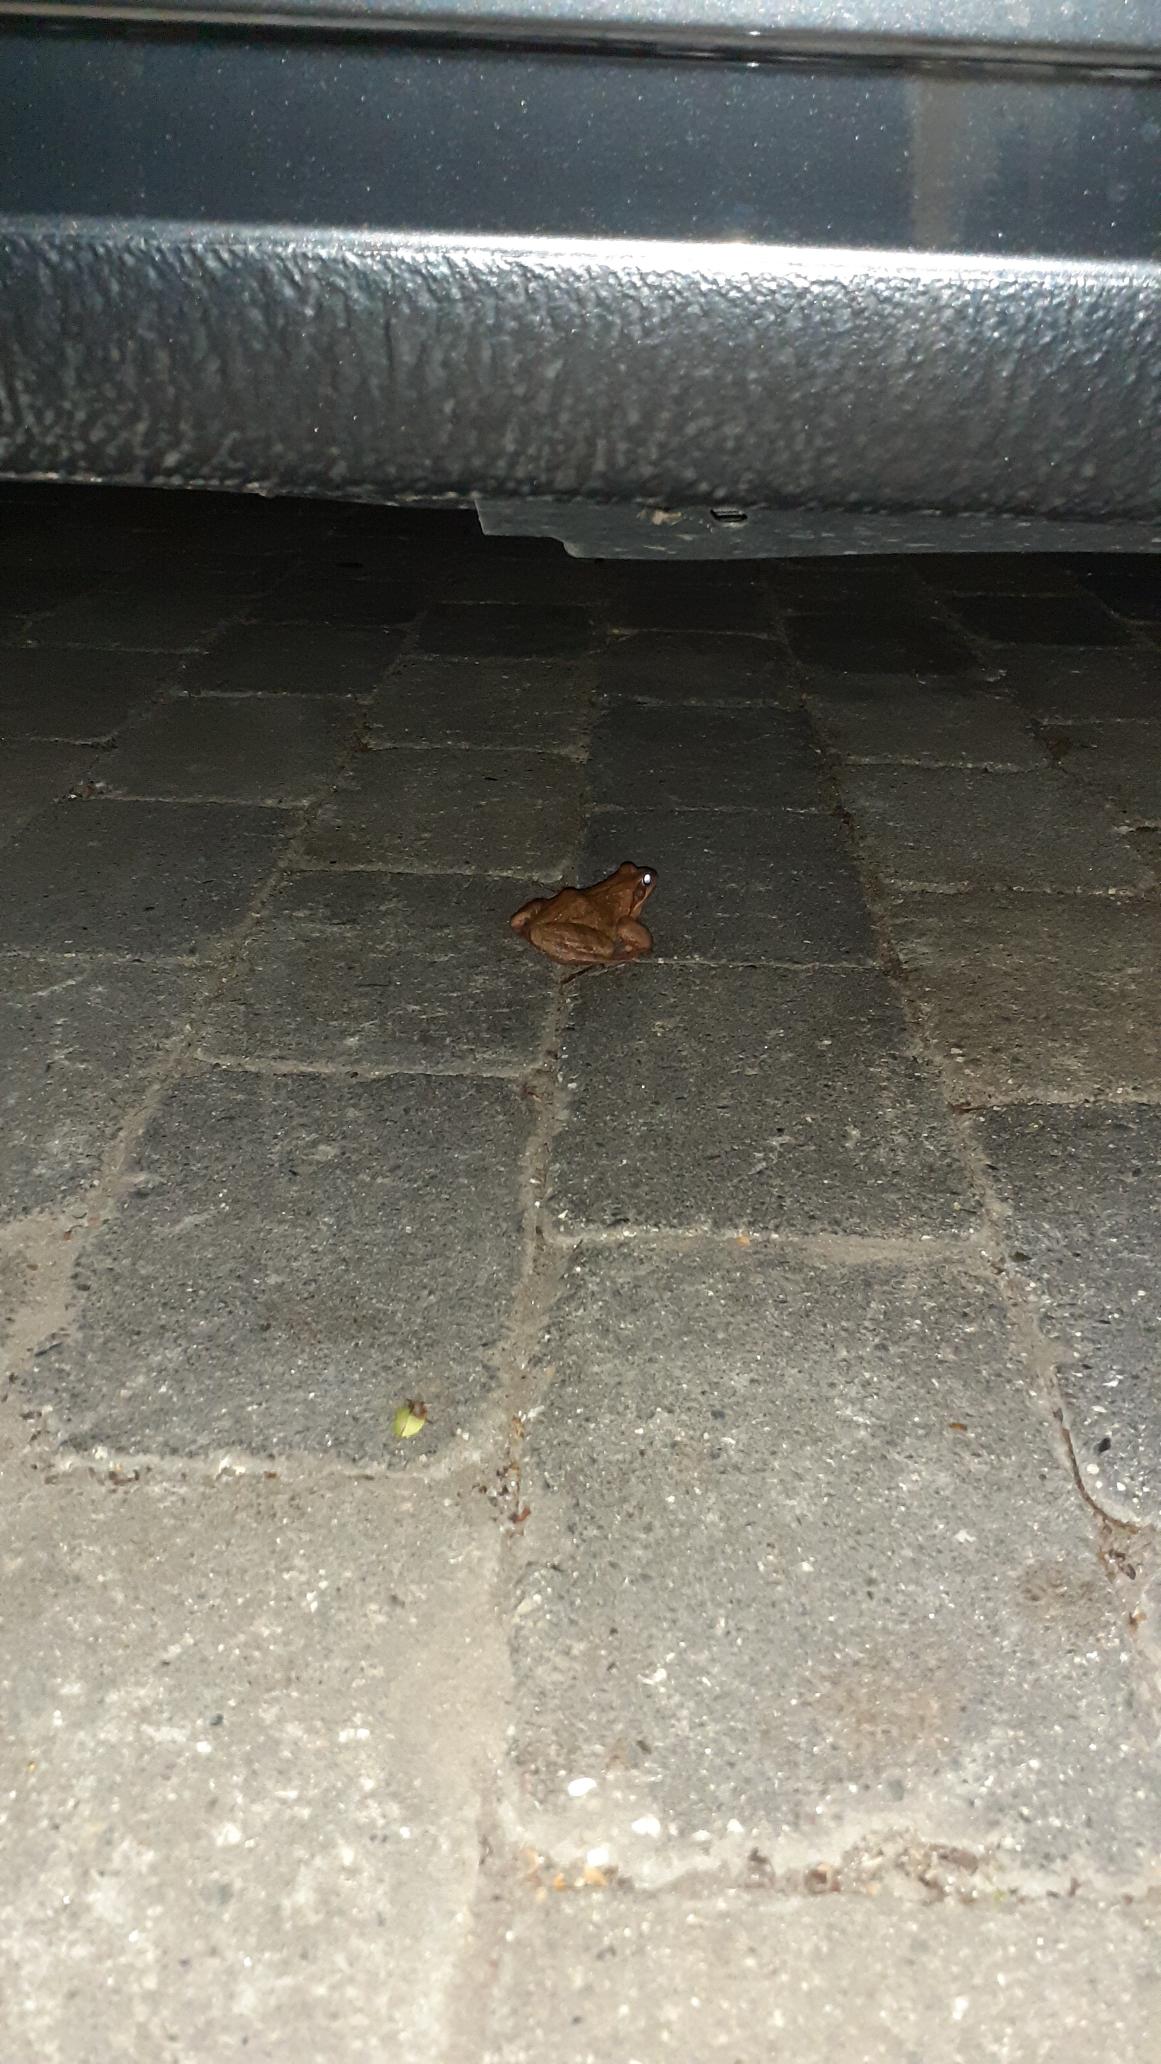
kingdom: Animalia
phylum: Chordata
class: Amphibia
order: Anura
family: Ranidae
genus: Rana
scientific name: Rana temporaria
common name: Butsnudet frø
